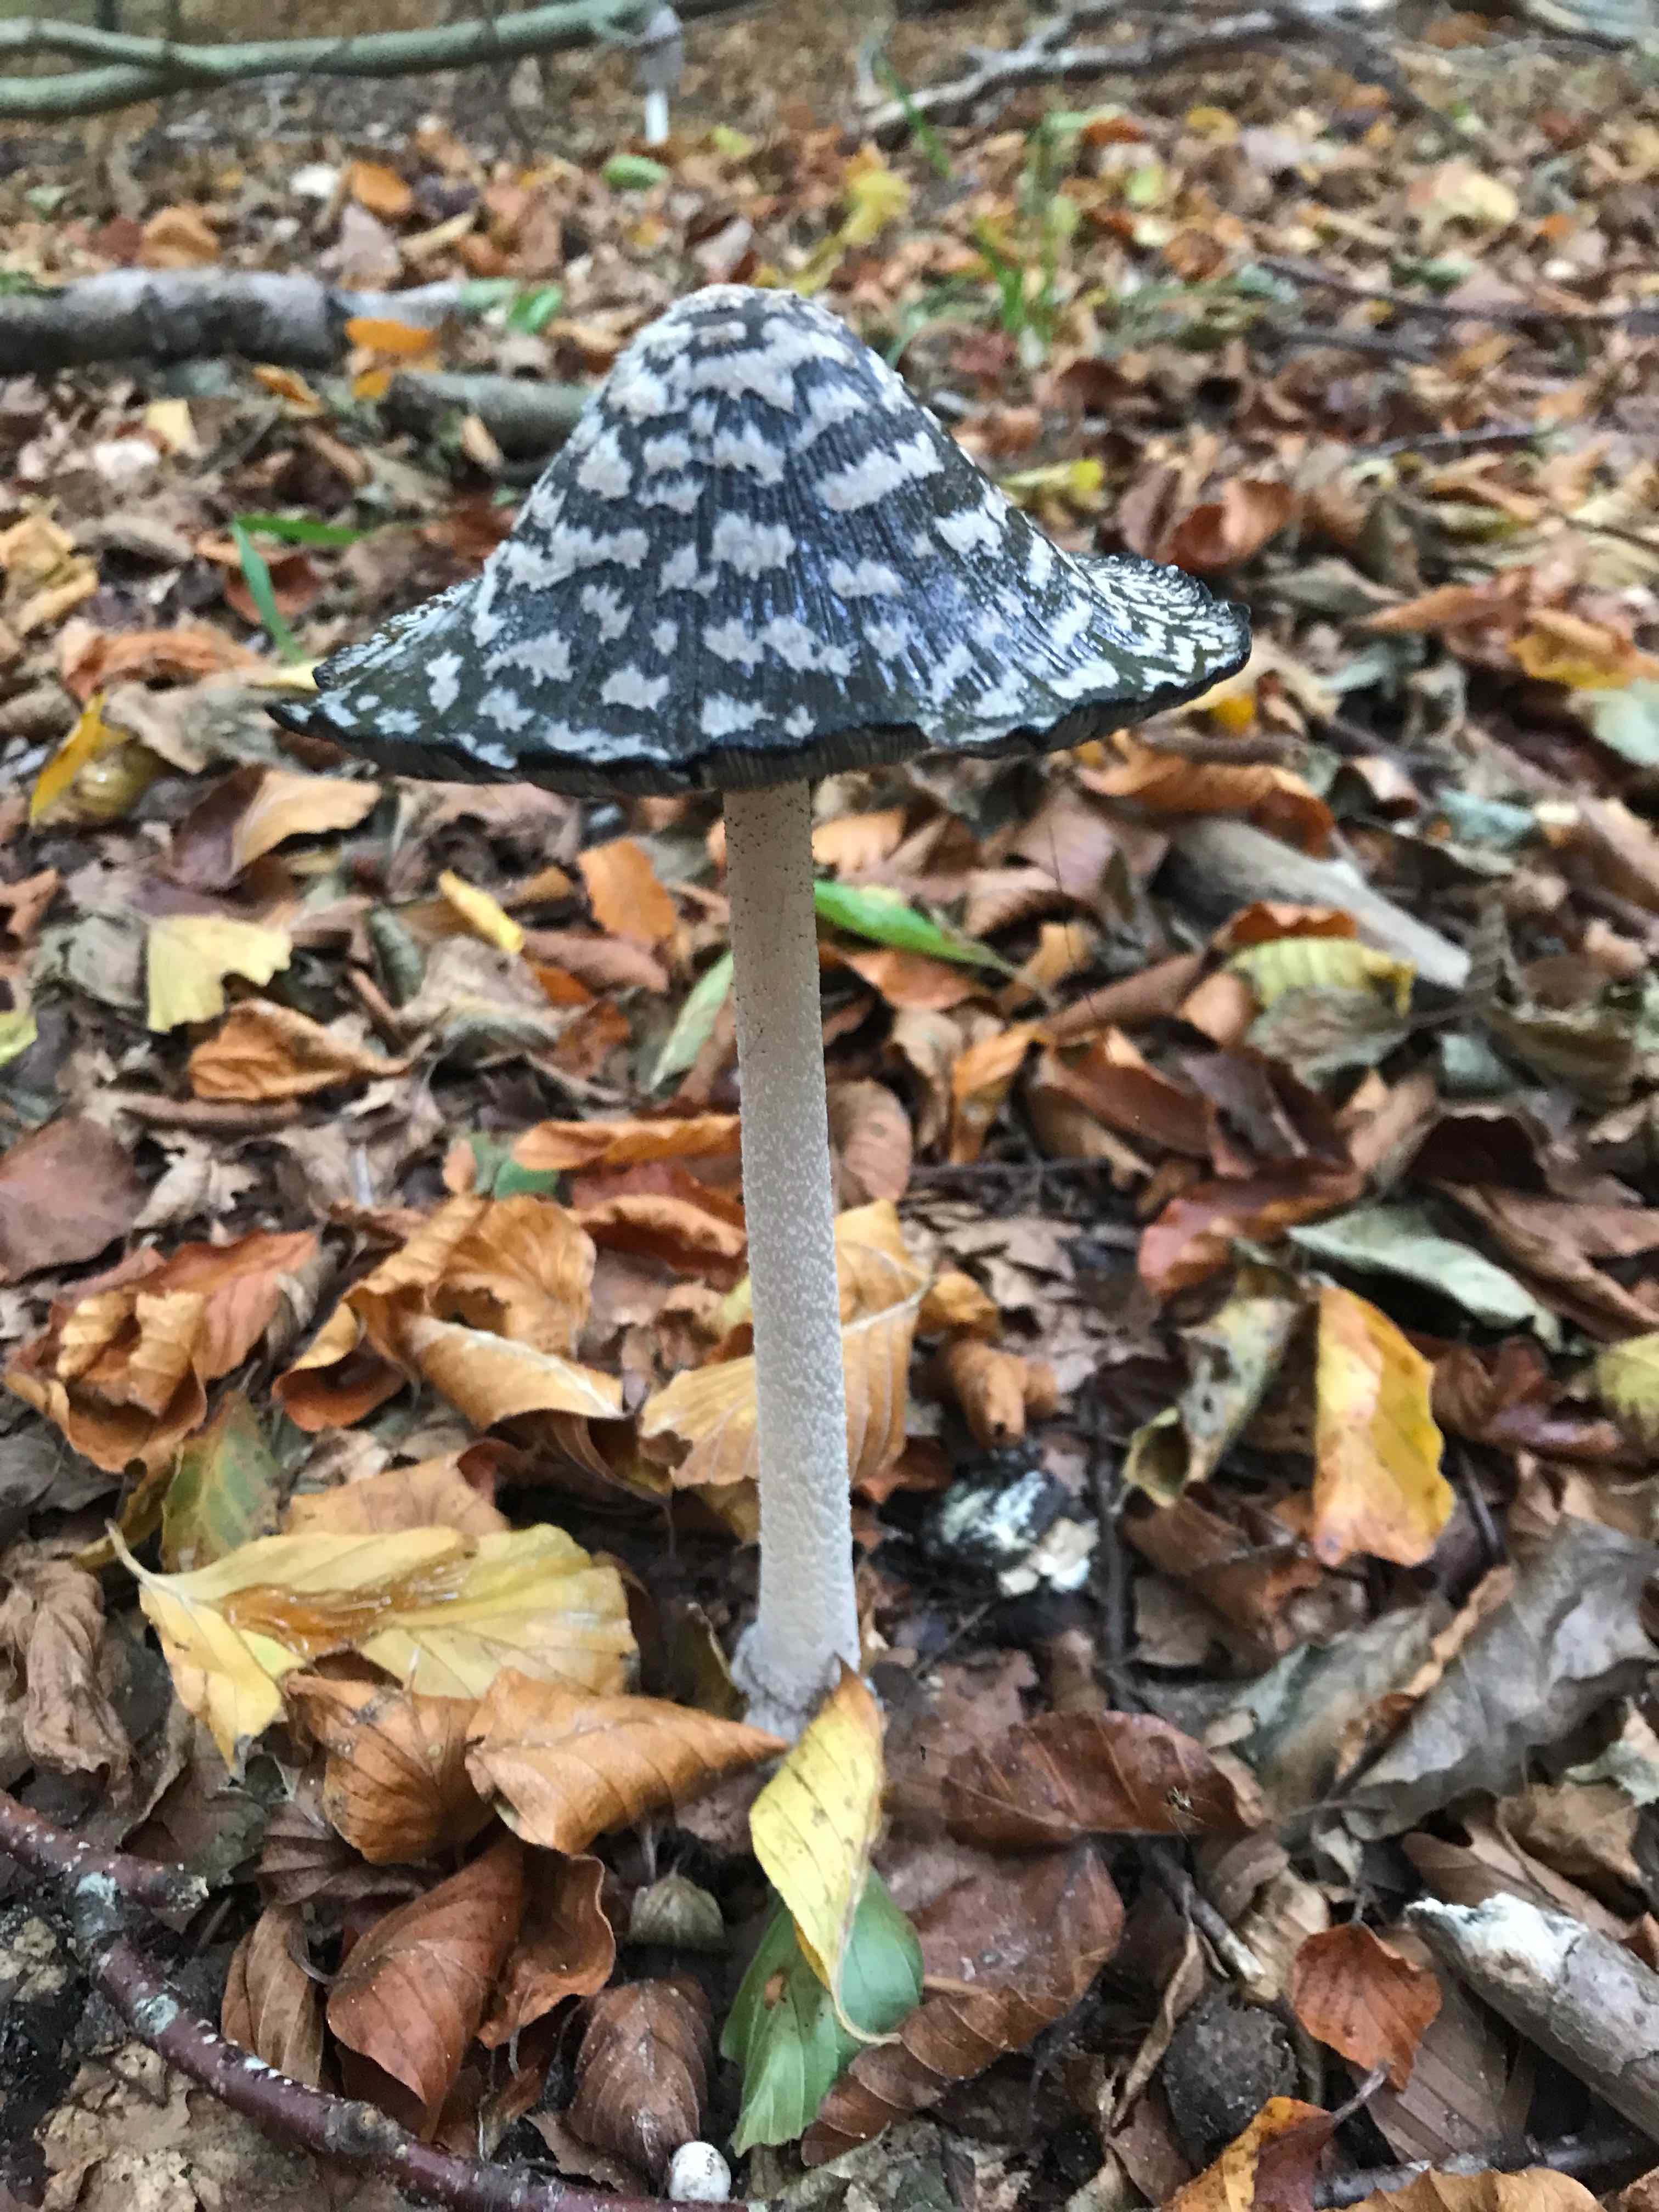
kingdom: Fungi
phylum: Basidiomycota
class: Agaricomycetes
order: Agaricales
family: Psathyrellaceae
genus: Coprinopsis
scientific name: Coprinopsis picacea
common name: skade-blækhat
